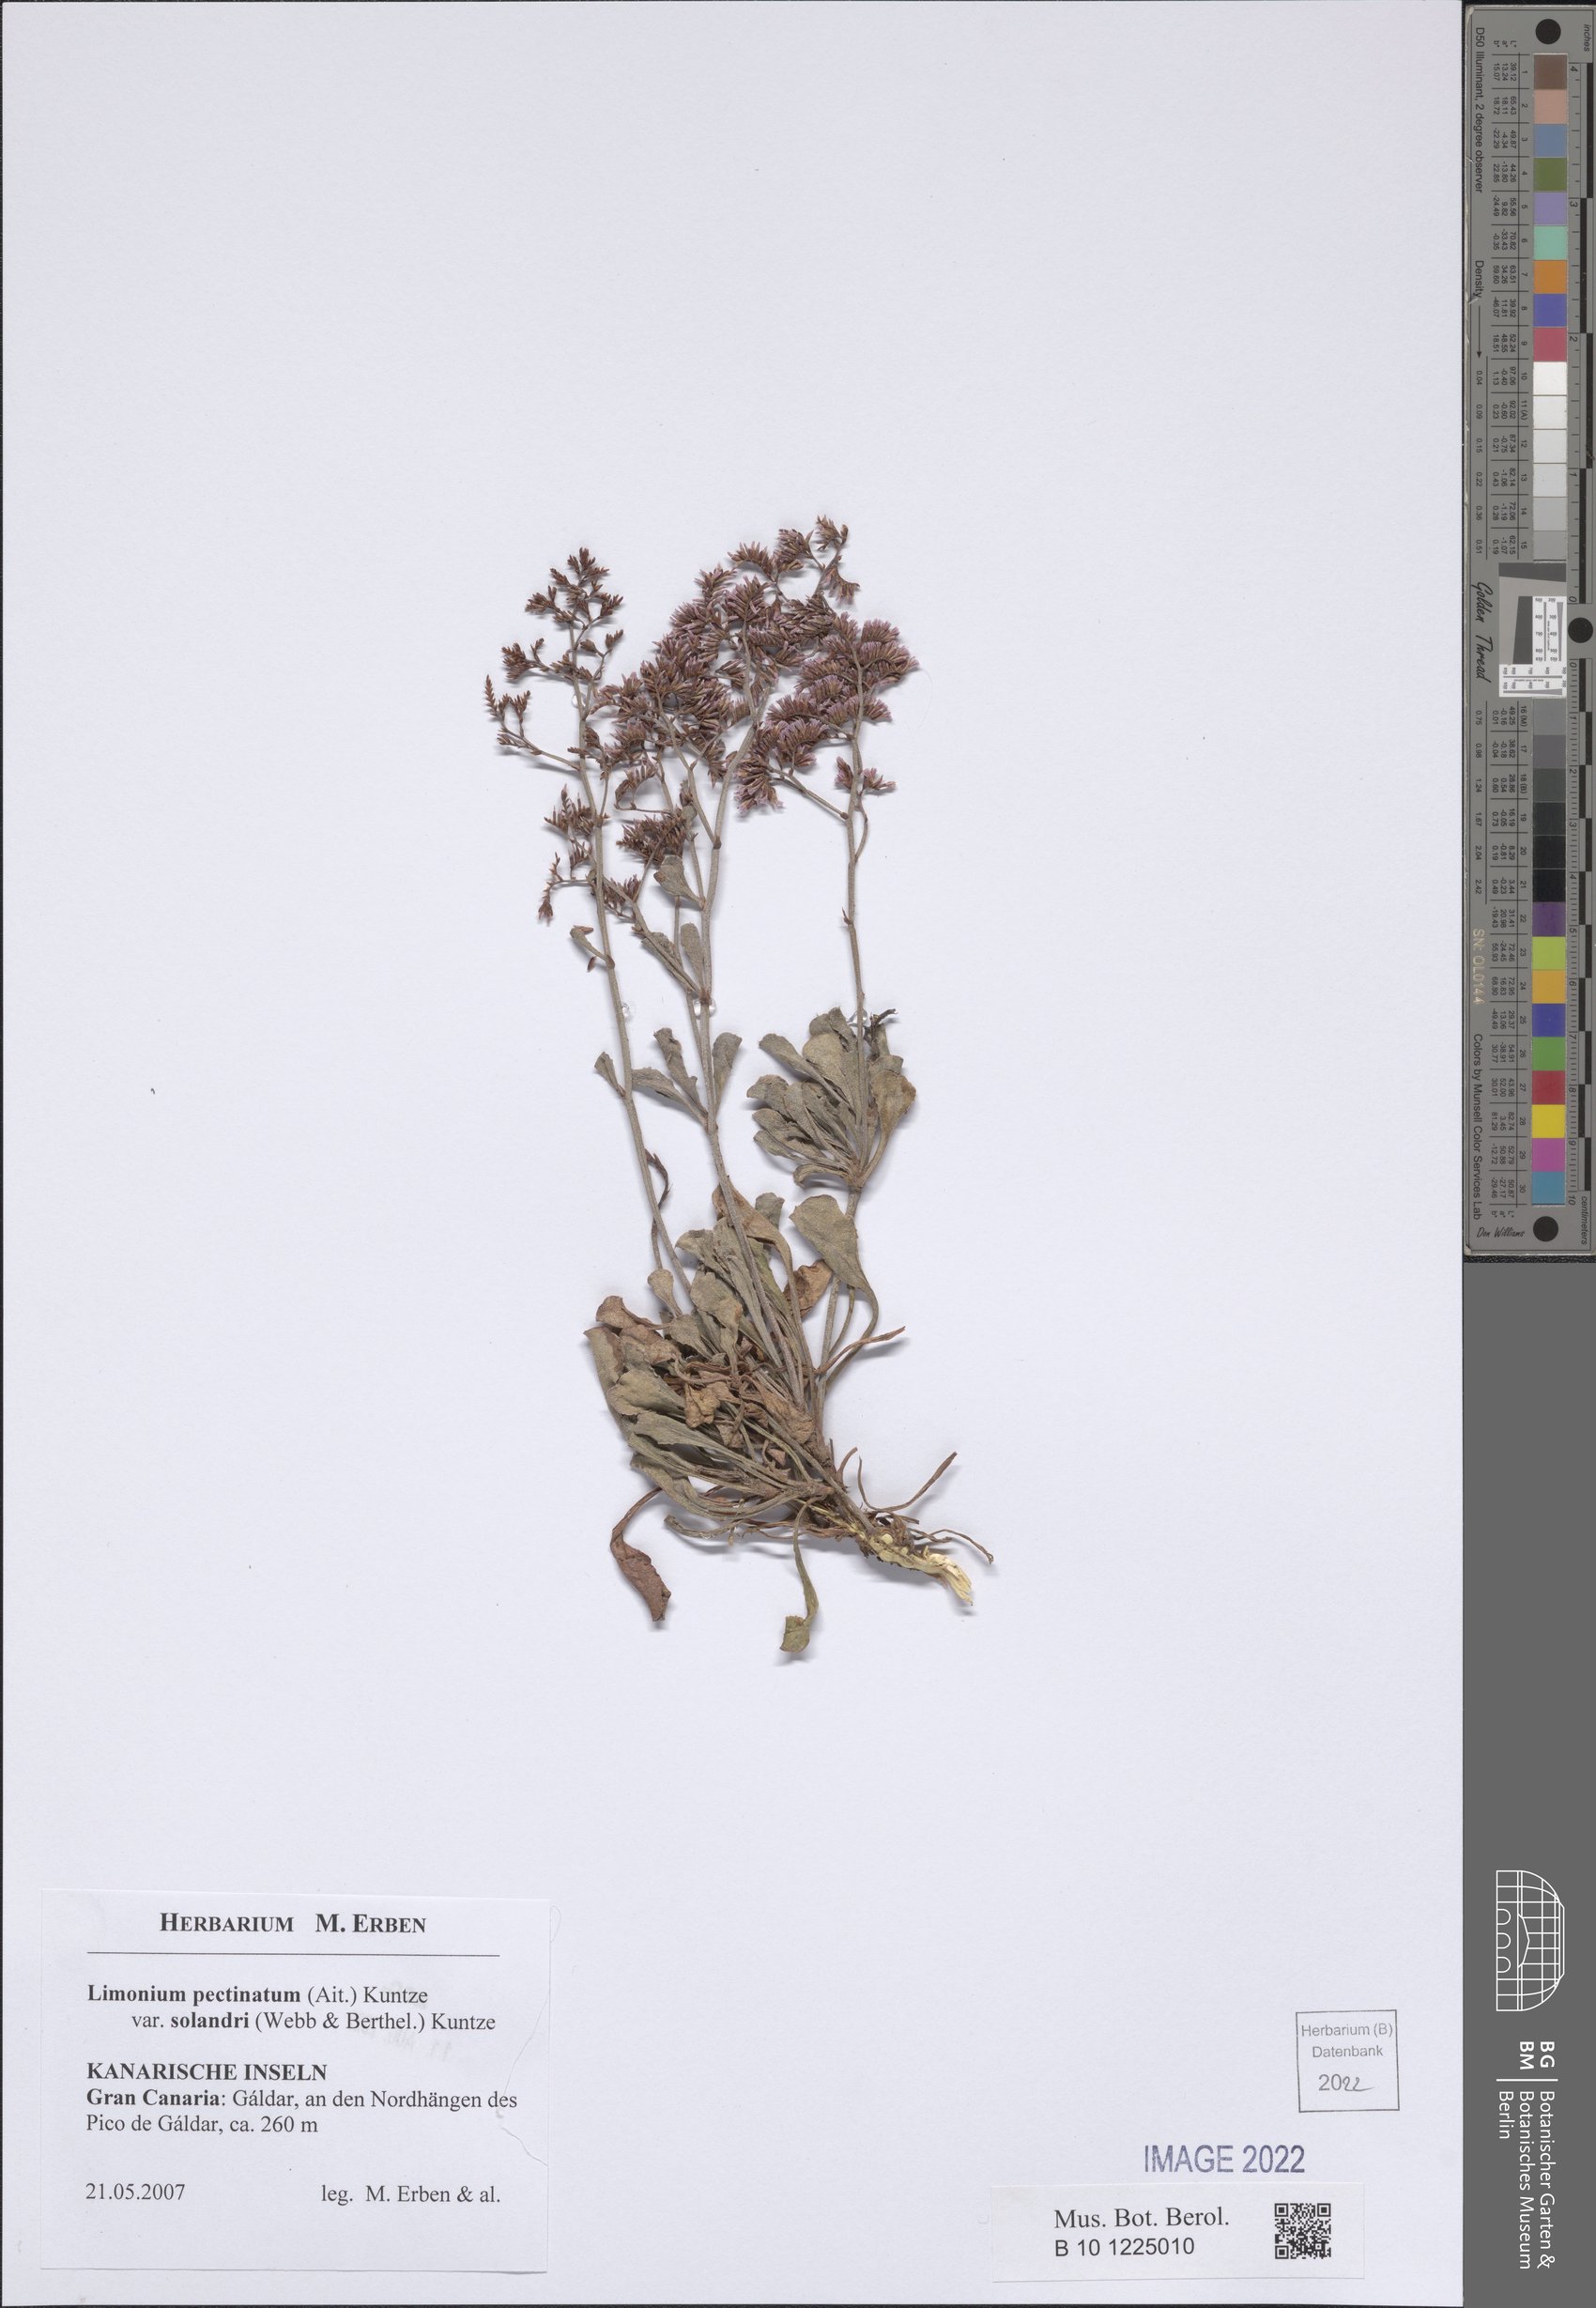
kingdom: Plantae
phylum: Tracheophyta
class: Magnoliopsida
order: Caryophyllales
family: Plumbaginaceae
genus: Limonium
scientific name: Limonium pectinatum
